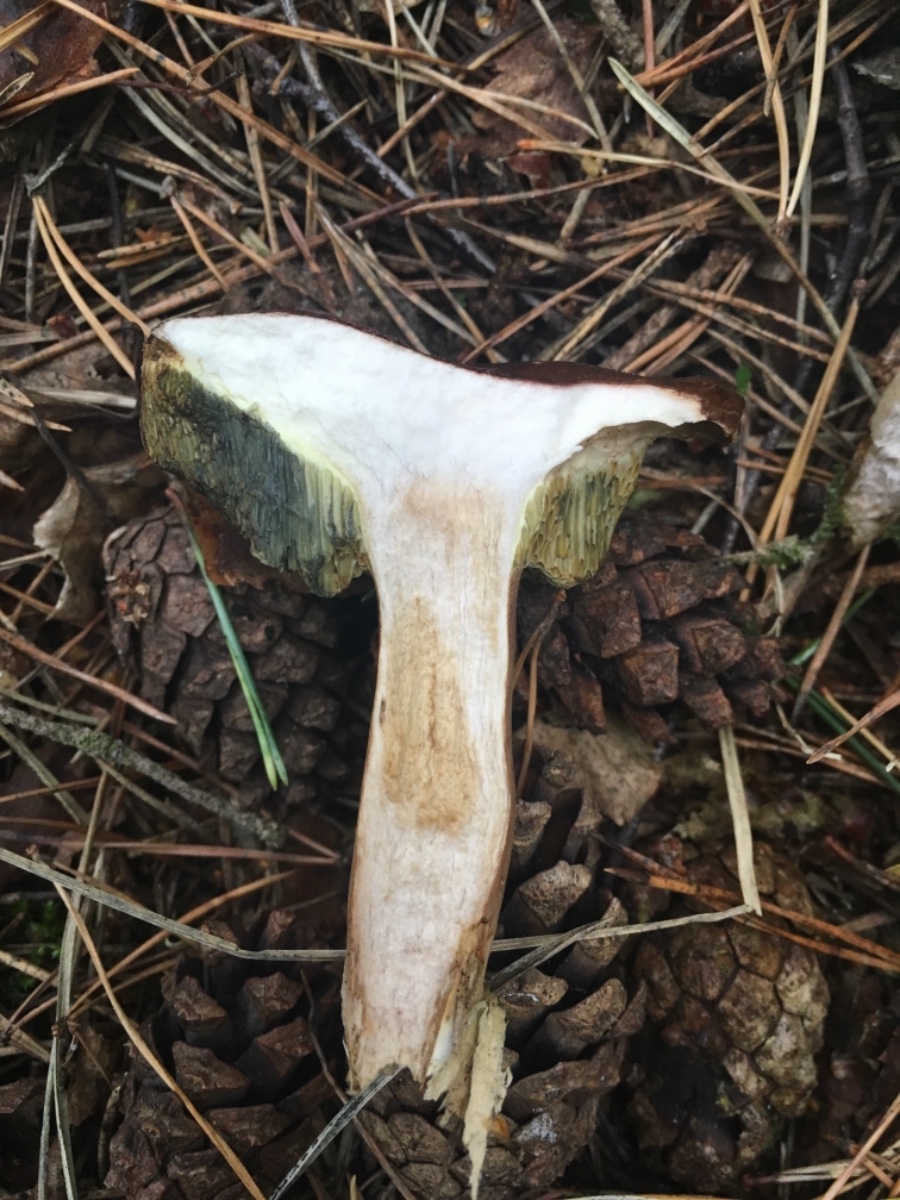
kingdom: Fungi
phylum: Basidiomycota
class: Agaricomycetes
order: Boletales
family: Boletaceae
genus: Imleria
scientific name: Imleria badia
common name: brunstokket rørhat
